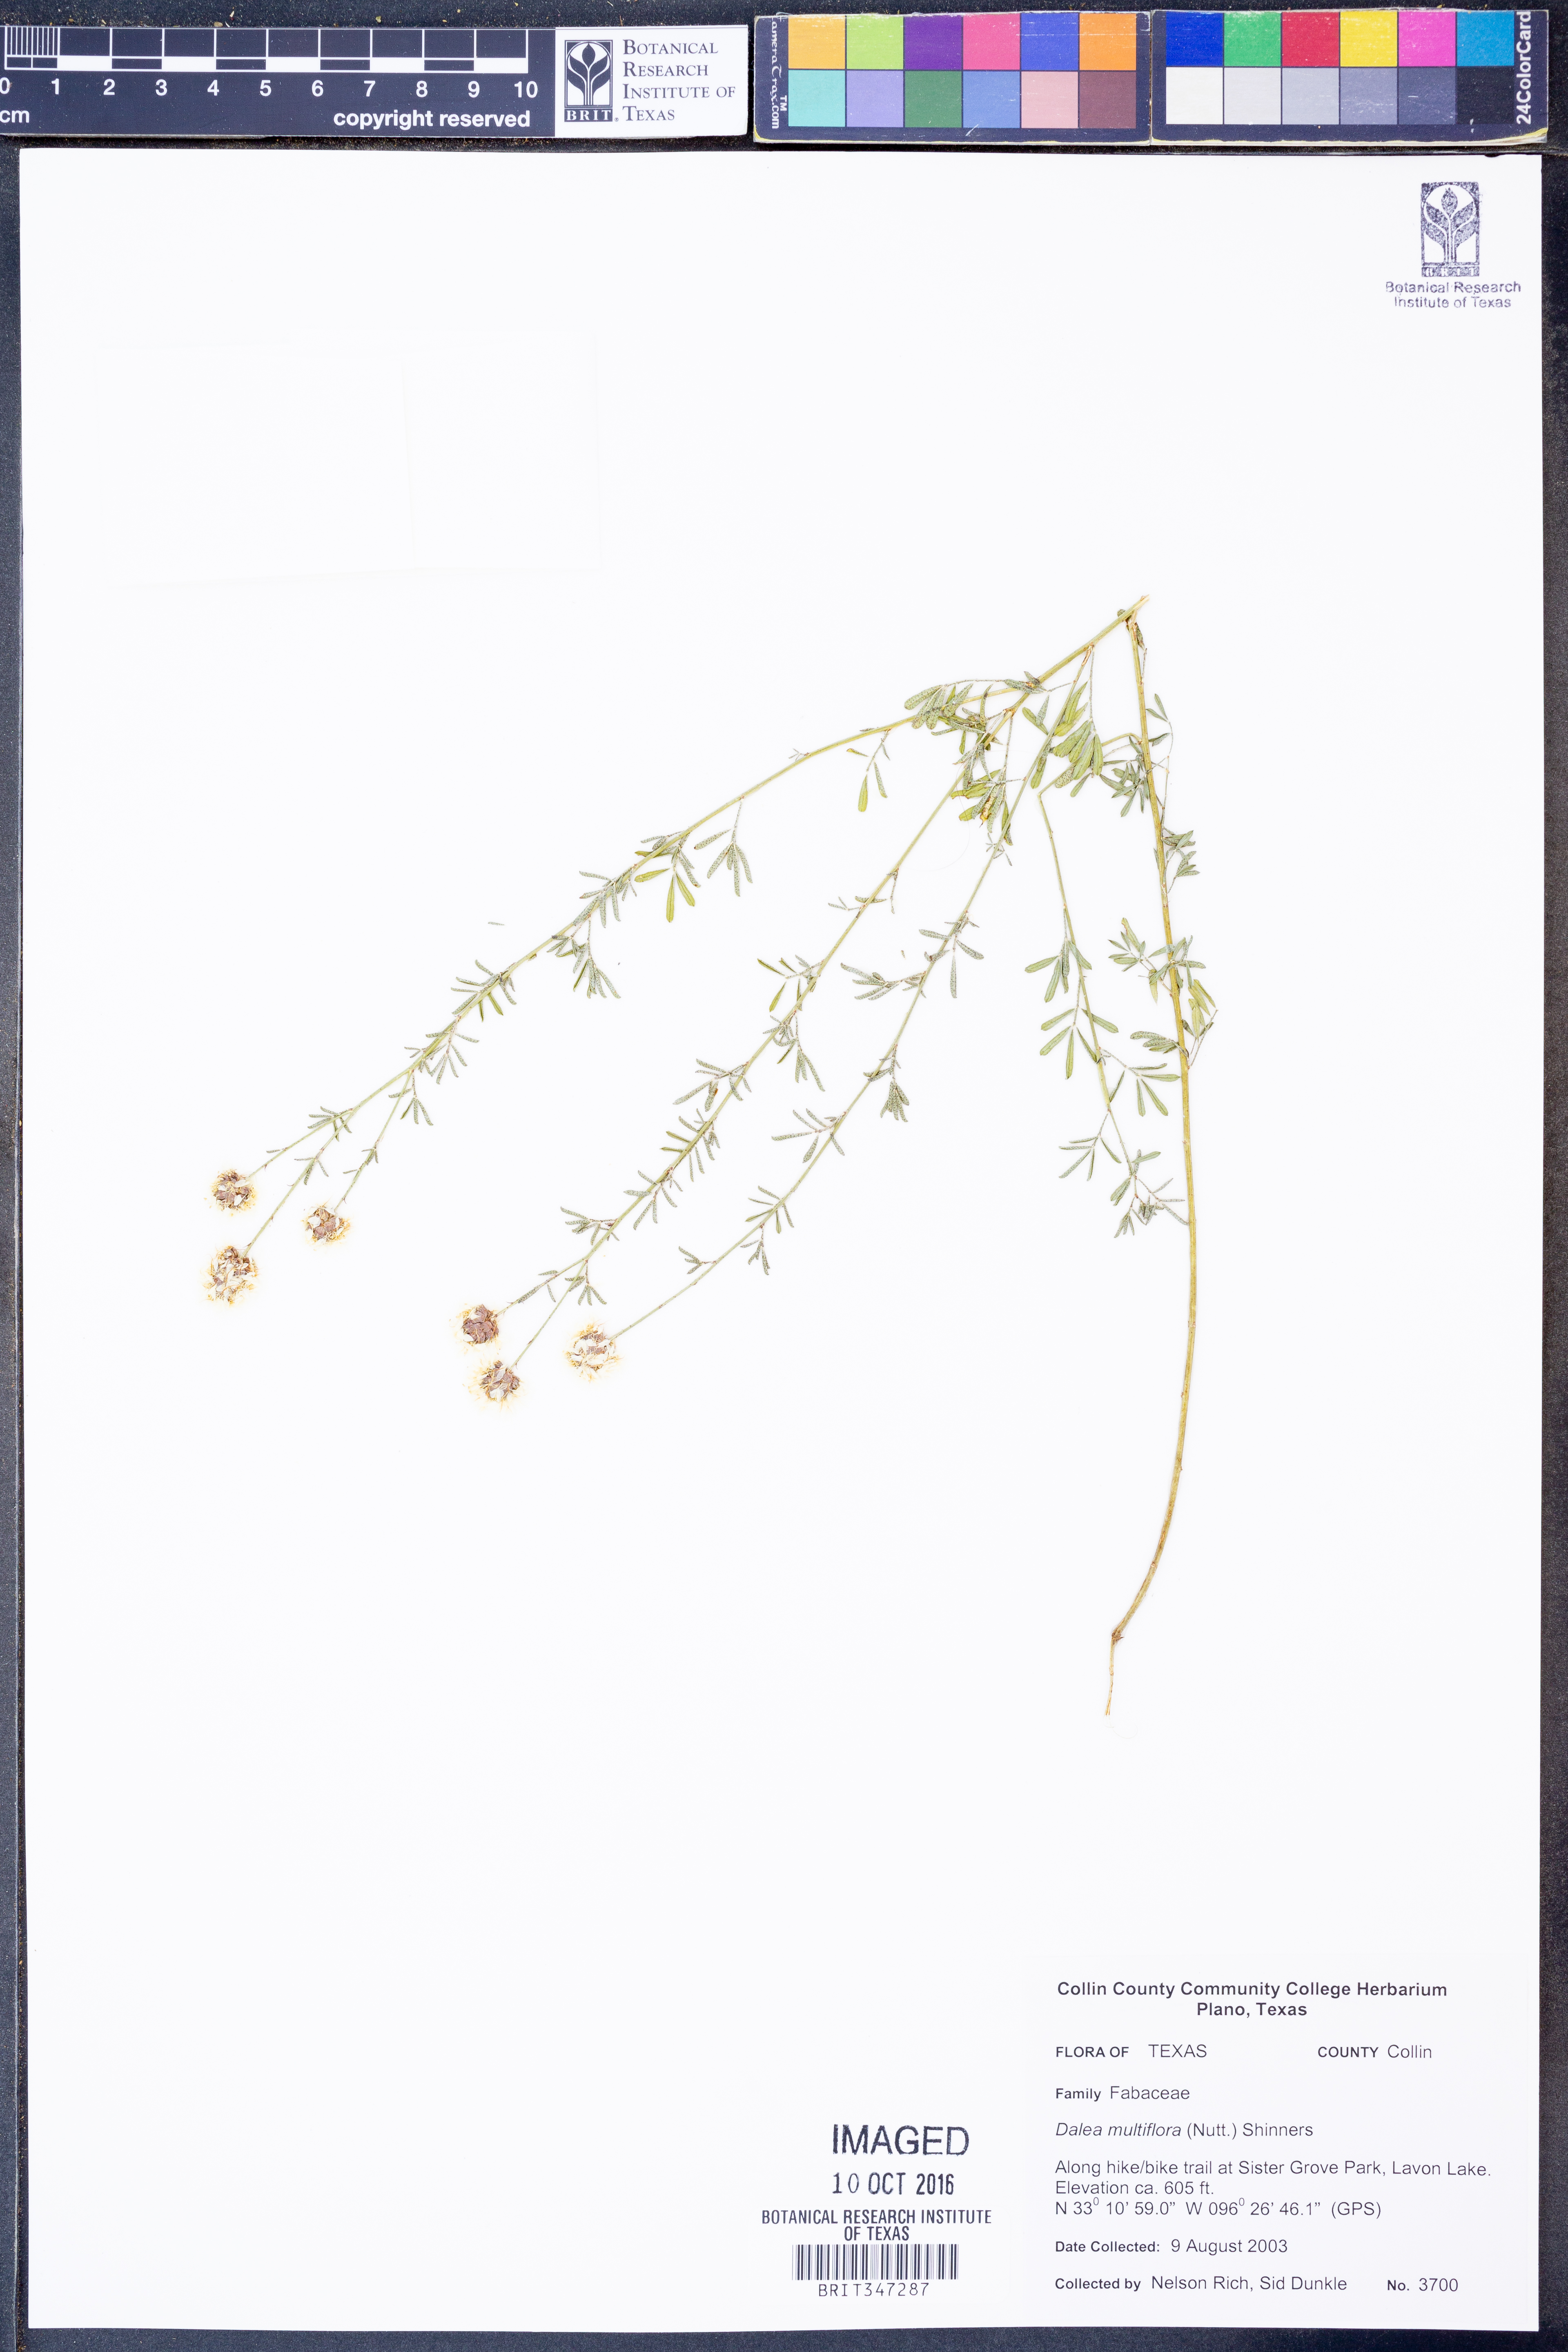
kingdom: Plantae
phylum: Tracheophyta
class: Magnoliopsida
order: Fabales
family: Fabaceae
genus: Dalea
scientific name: Dalea multiflora
